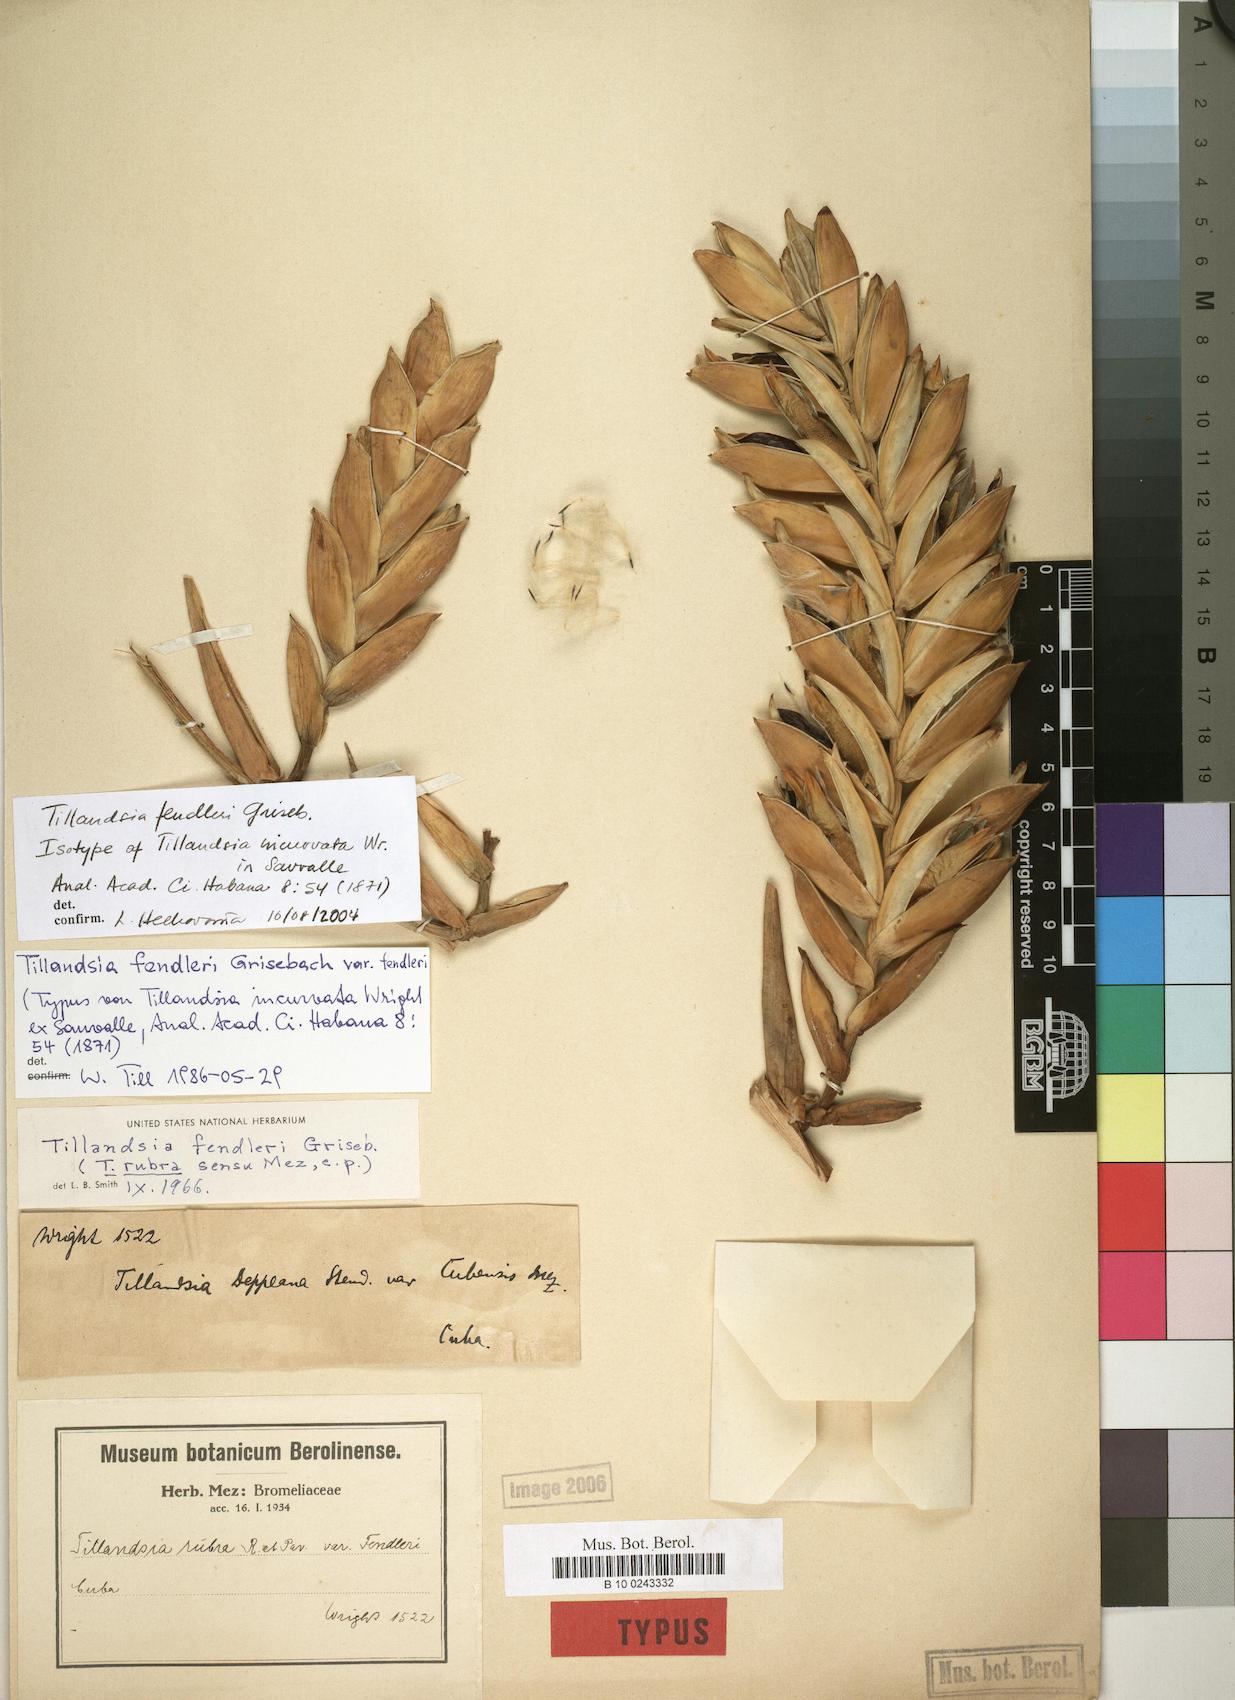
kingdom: Plantae
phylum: Tracheophyta
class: Liliopsida
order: Poales
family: Bromeliaceae
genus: Tillandsia
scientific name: Tillandsia fendleri
